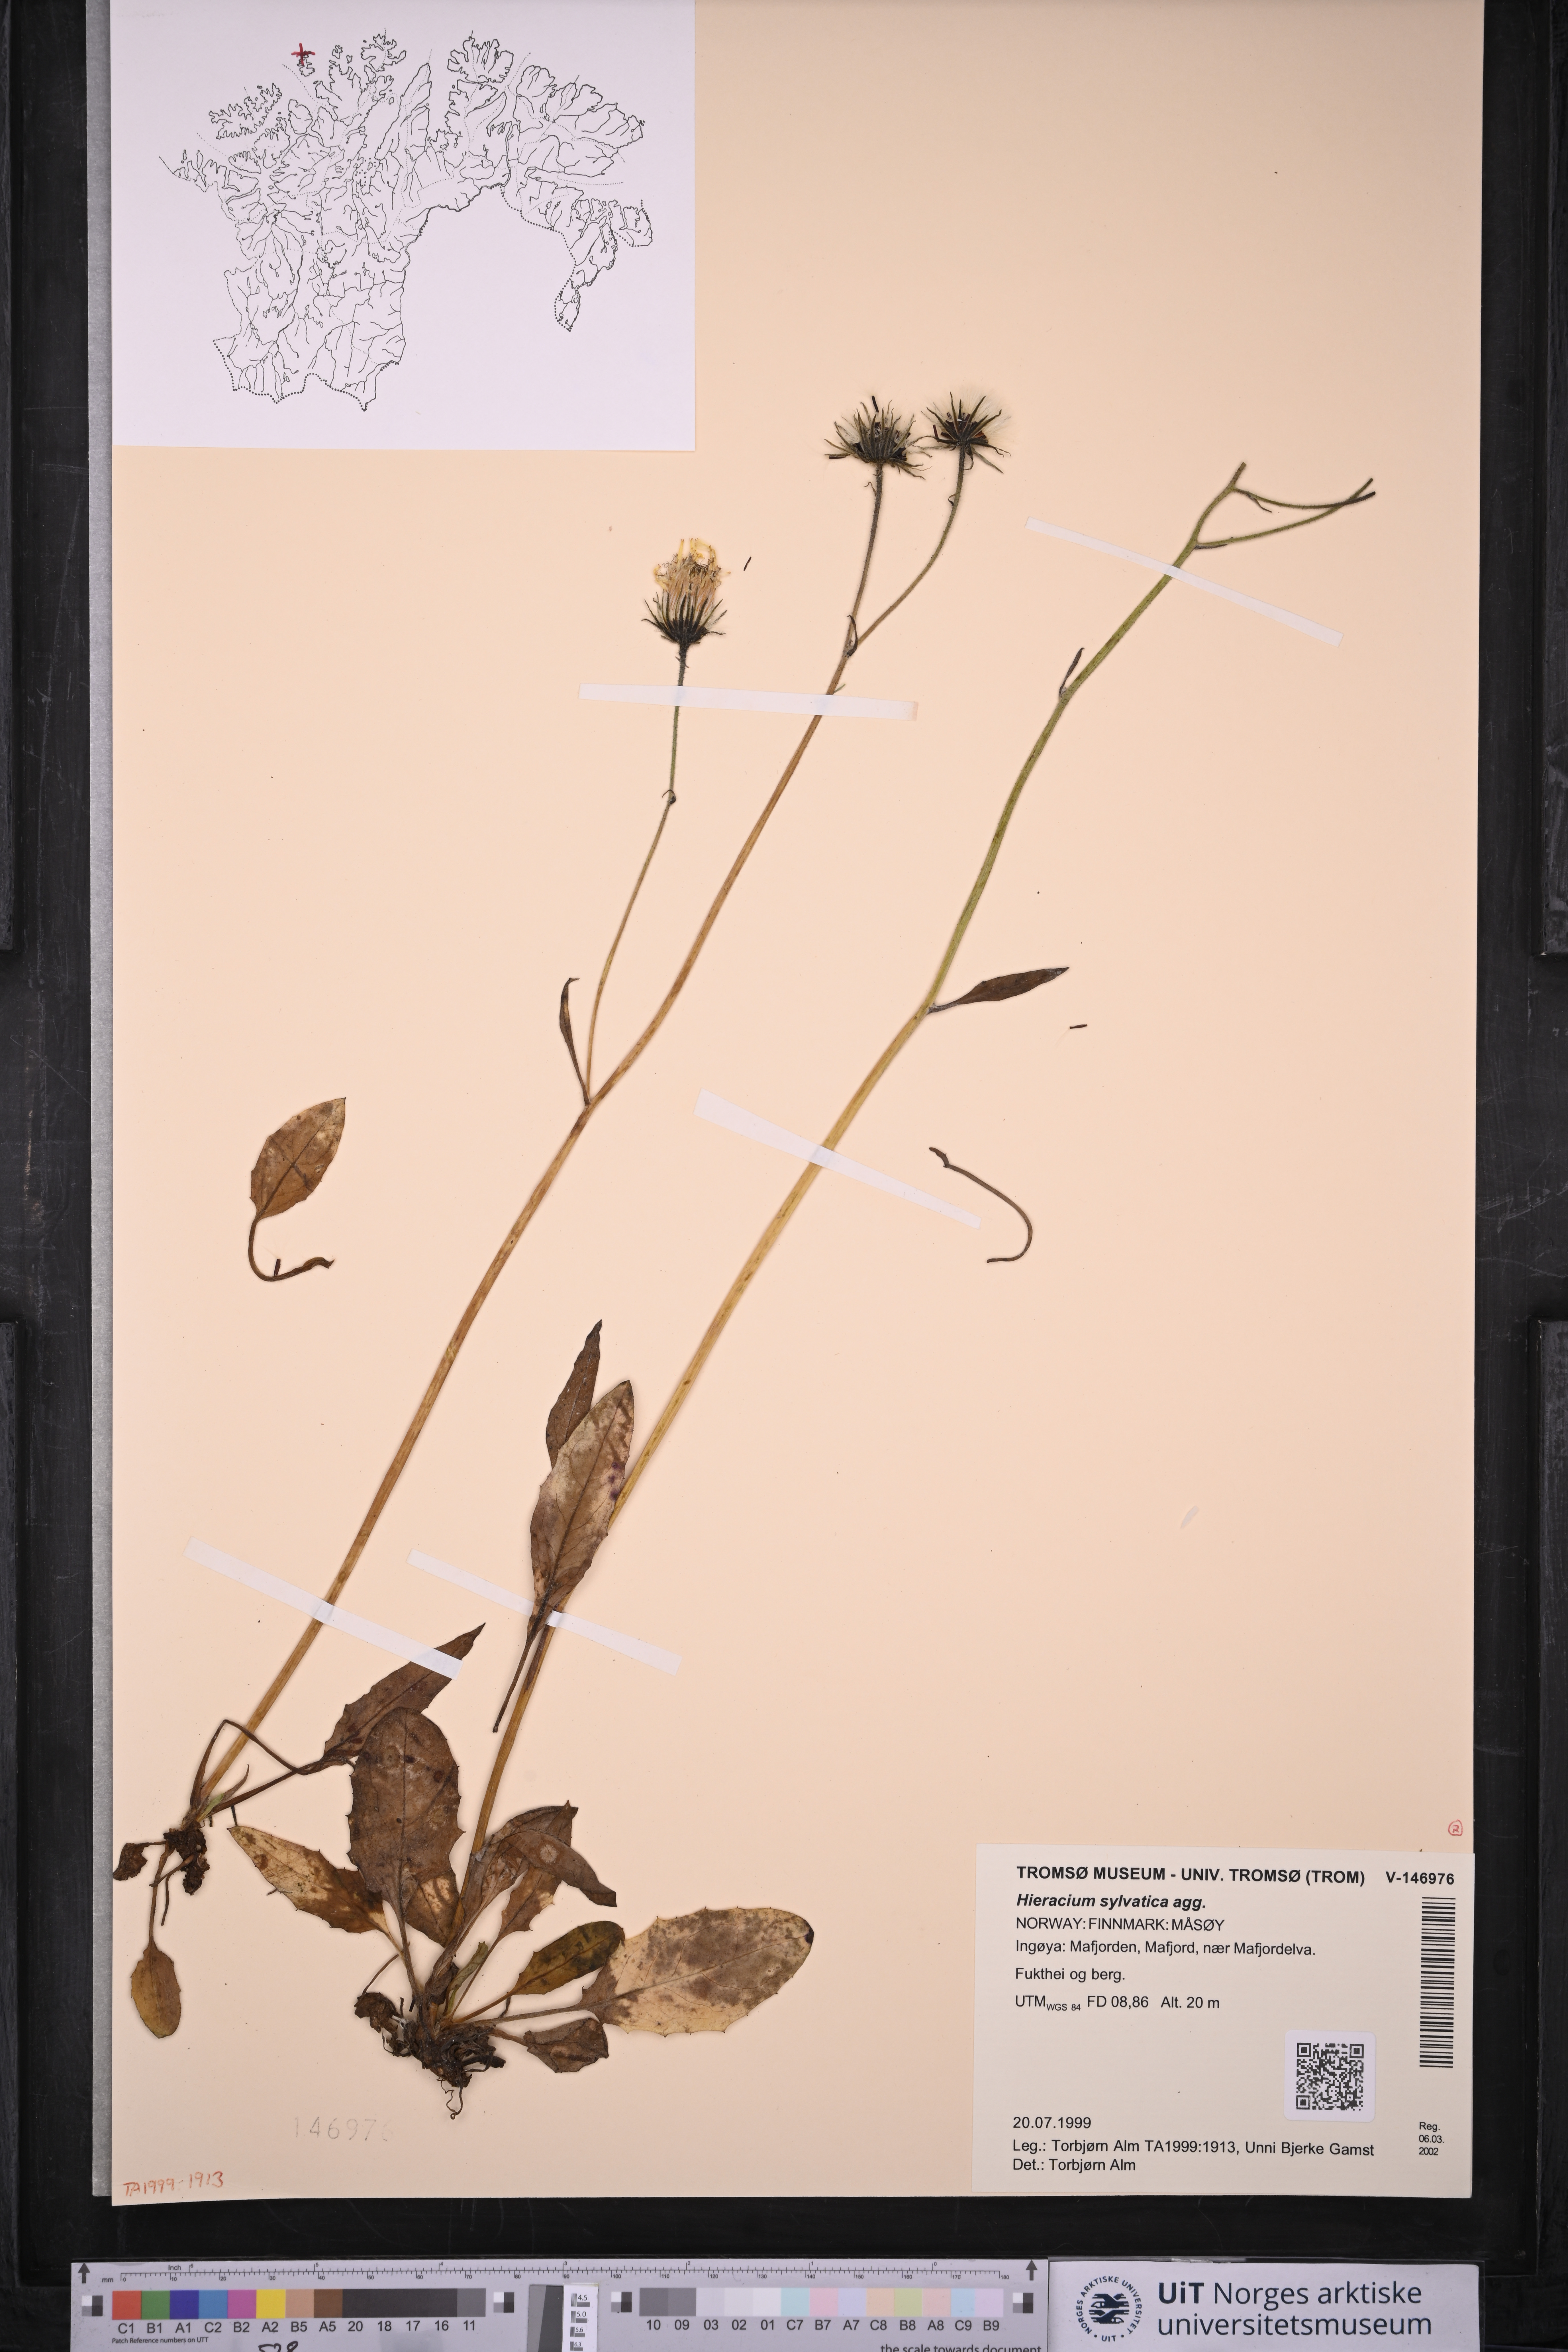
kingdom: Plantae
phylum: Tracheophyta
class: Magnoliopsida
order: Asterales
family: Asteraceae
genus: Hieracium
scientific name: Hieracium
